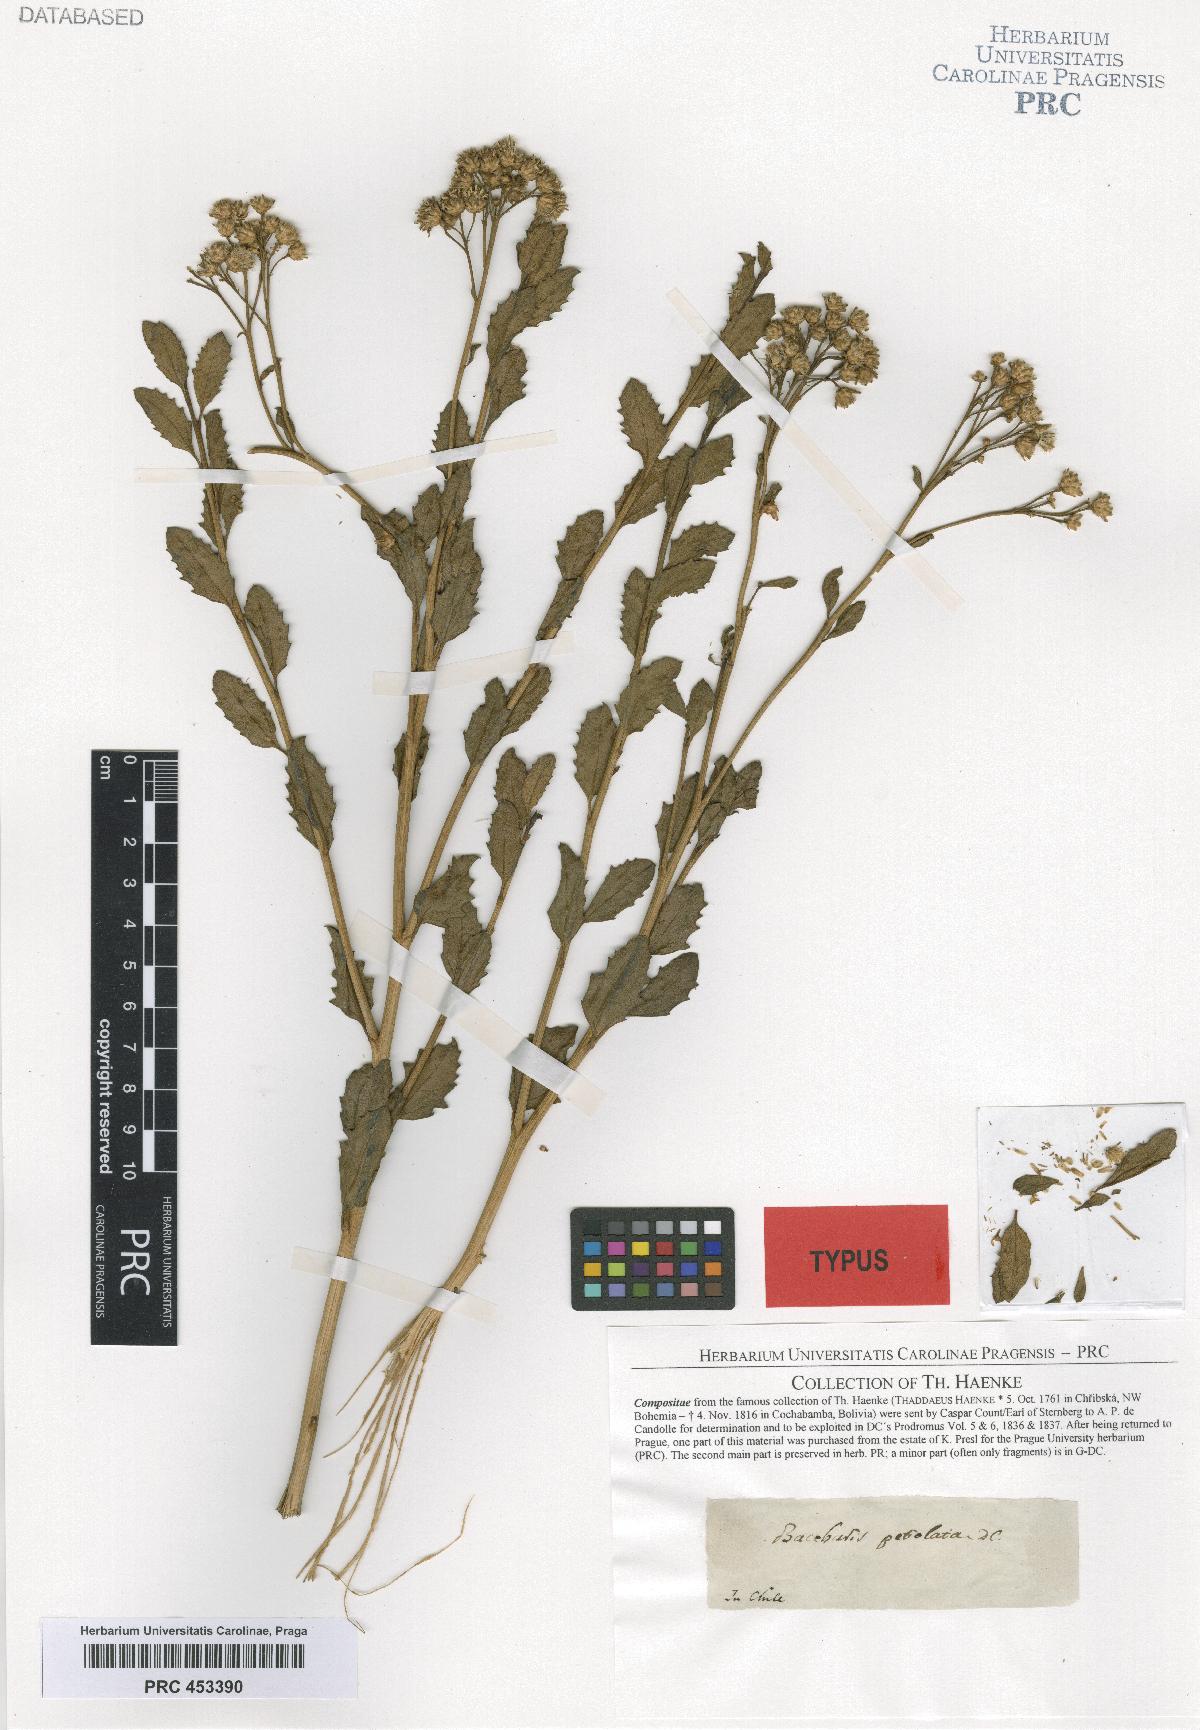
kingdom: Plantae
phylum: Tracheophyta
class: Magnoliopsida
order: Asterales
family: Asteraceae
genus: Baccharis
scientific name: Baccharis scandens
